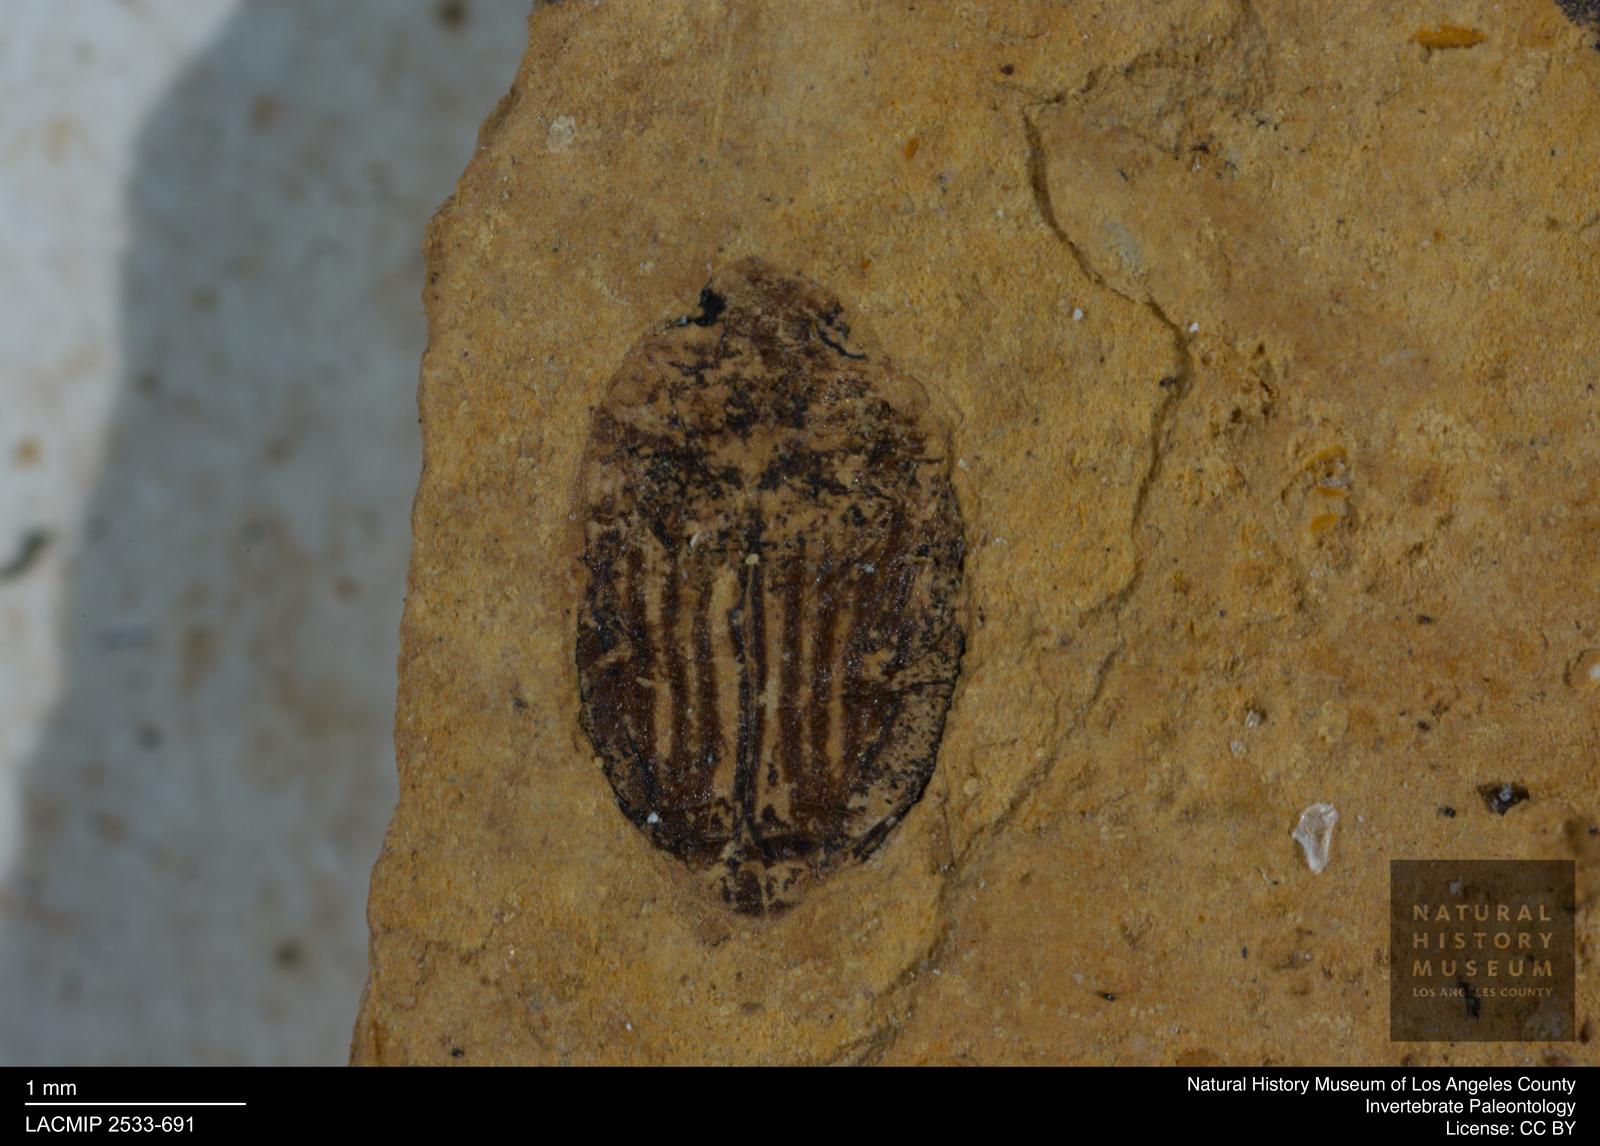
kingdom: Animalia
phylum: Arthropoda
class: Insecta
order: Coleoptera
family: Dytiscidae
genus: Oreodytes
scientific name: Oreodytes cryptolineatus
